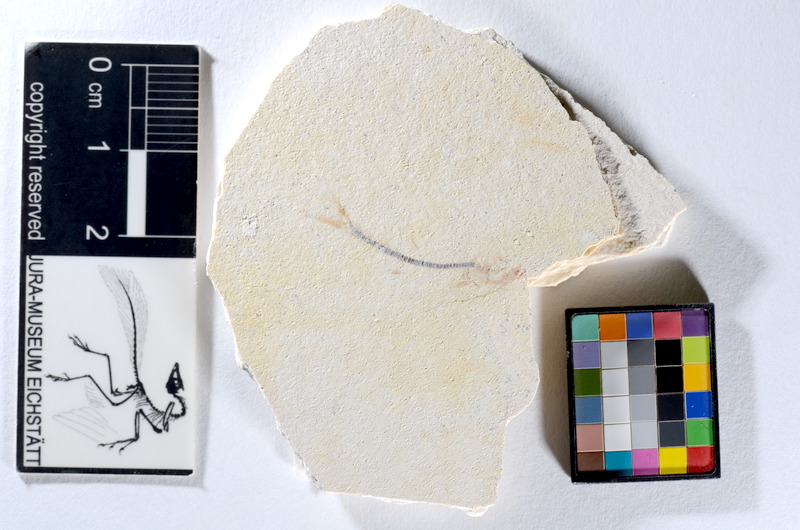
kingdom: Animalia
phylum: Chordata
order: Salmoniformes
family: Orthogonikleithridae
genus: Orthogonikleithrus
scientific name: Orthogonikleithrus hoelli
